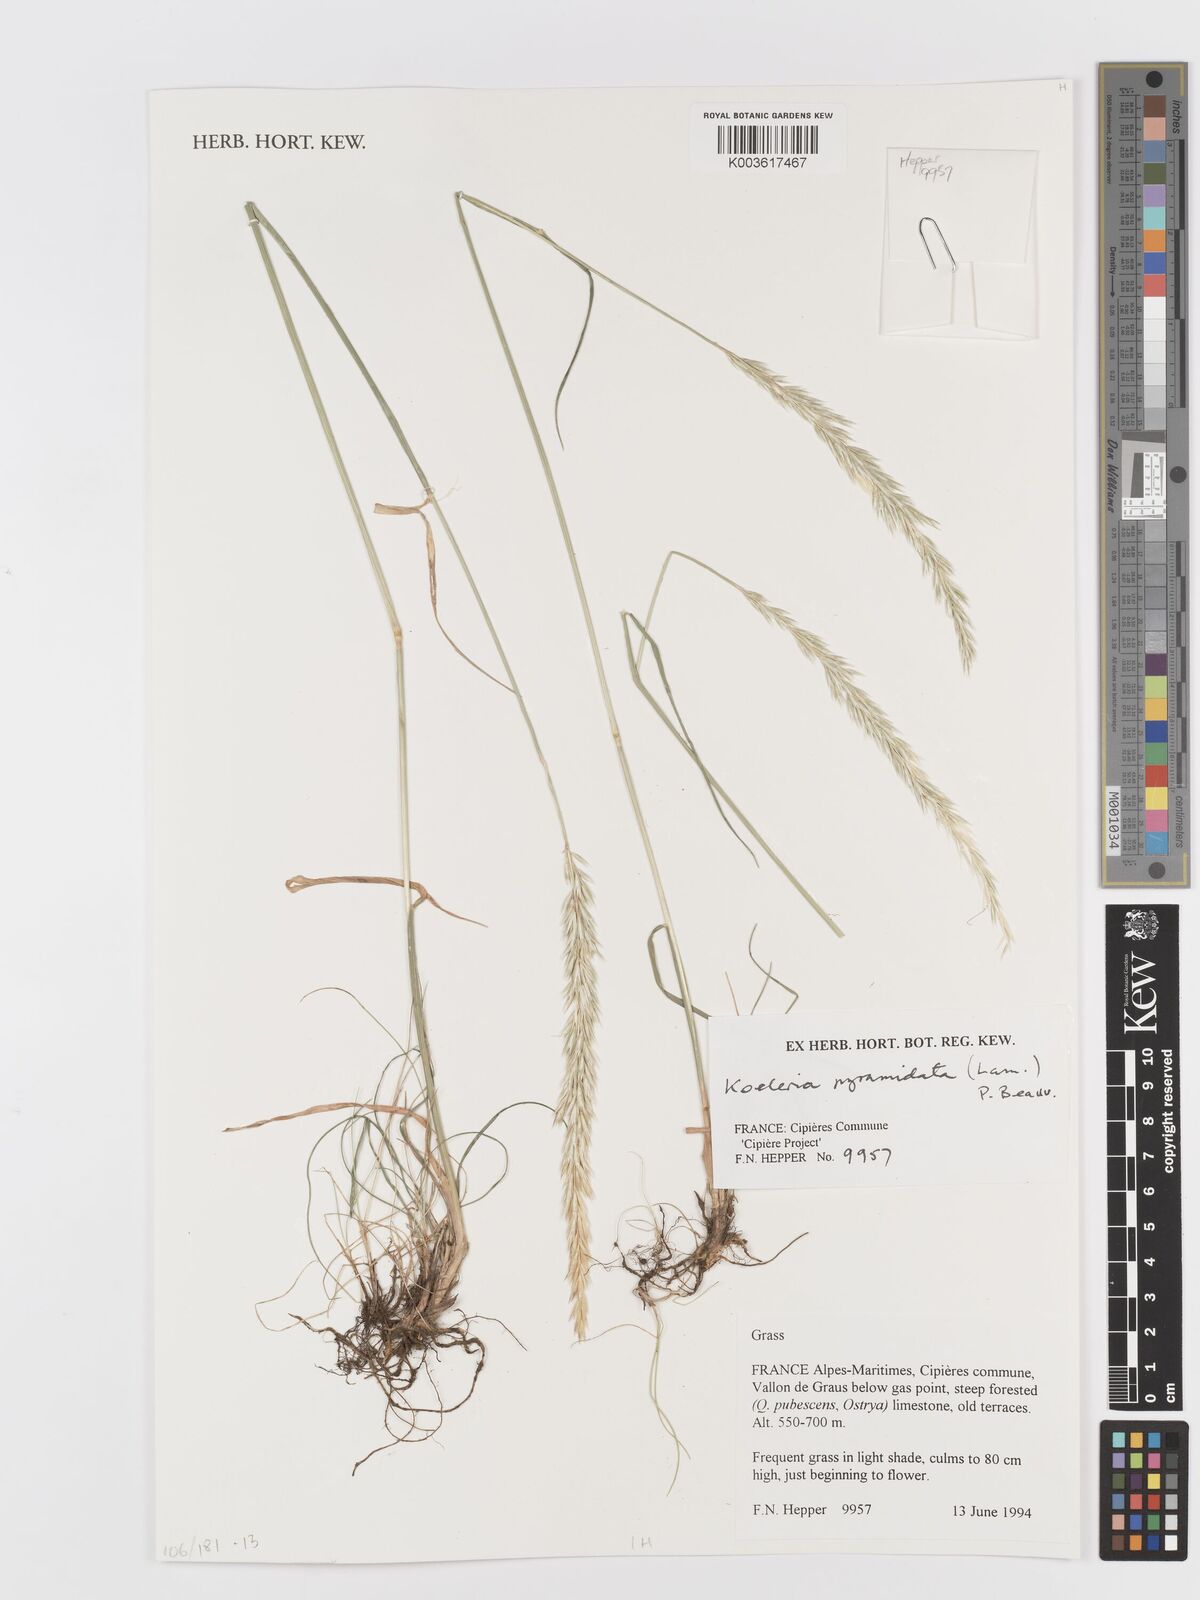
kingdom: Plantae
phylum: Tracheophyta
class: Liliopsida
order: Poales
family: Poaceae
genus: Koeleria
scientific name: Koeleria pyramidata
